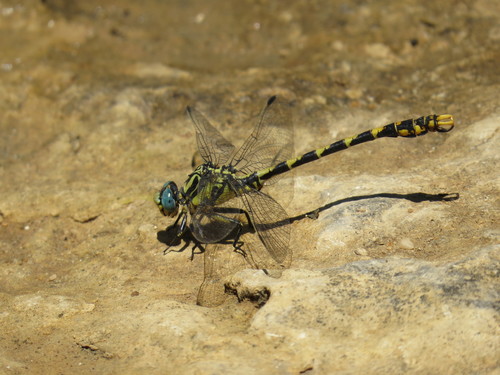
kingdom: Animalia
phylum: Arthropoda
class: Insecta
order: Odonata
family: Gomphidae
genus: Onychogomphus
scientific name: Onychogomphus uncatus
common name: Large pincertail
